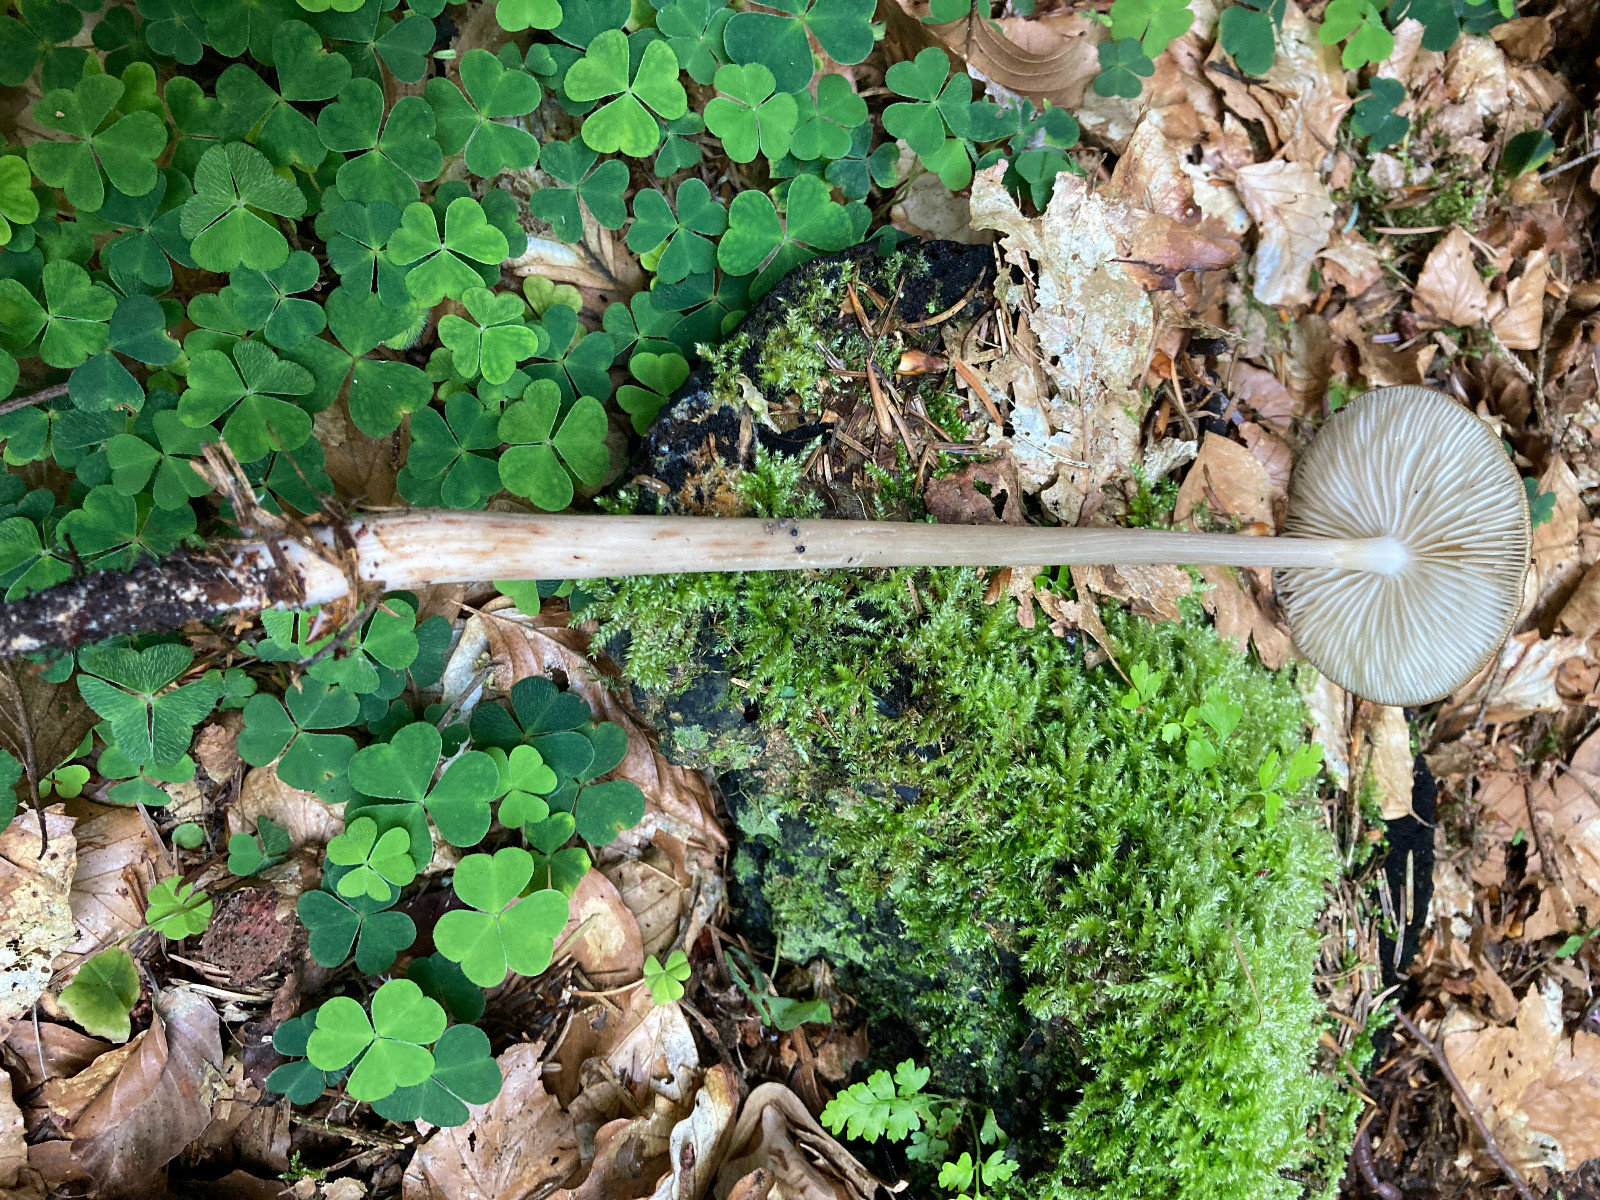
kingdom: Fungi
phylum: Basidiomycota
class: Agaricomycetes
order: Agaricales
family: Physalacriaceae
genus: Hymenopellis
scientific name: Hymenopellis radicata
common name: almindelig pælerodshat
